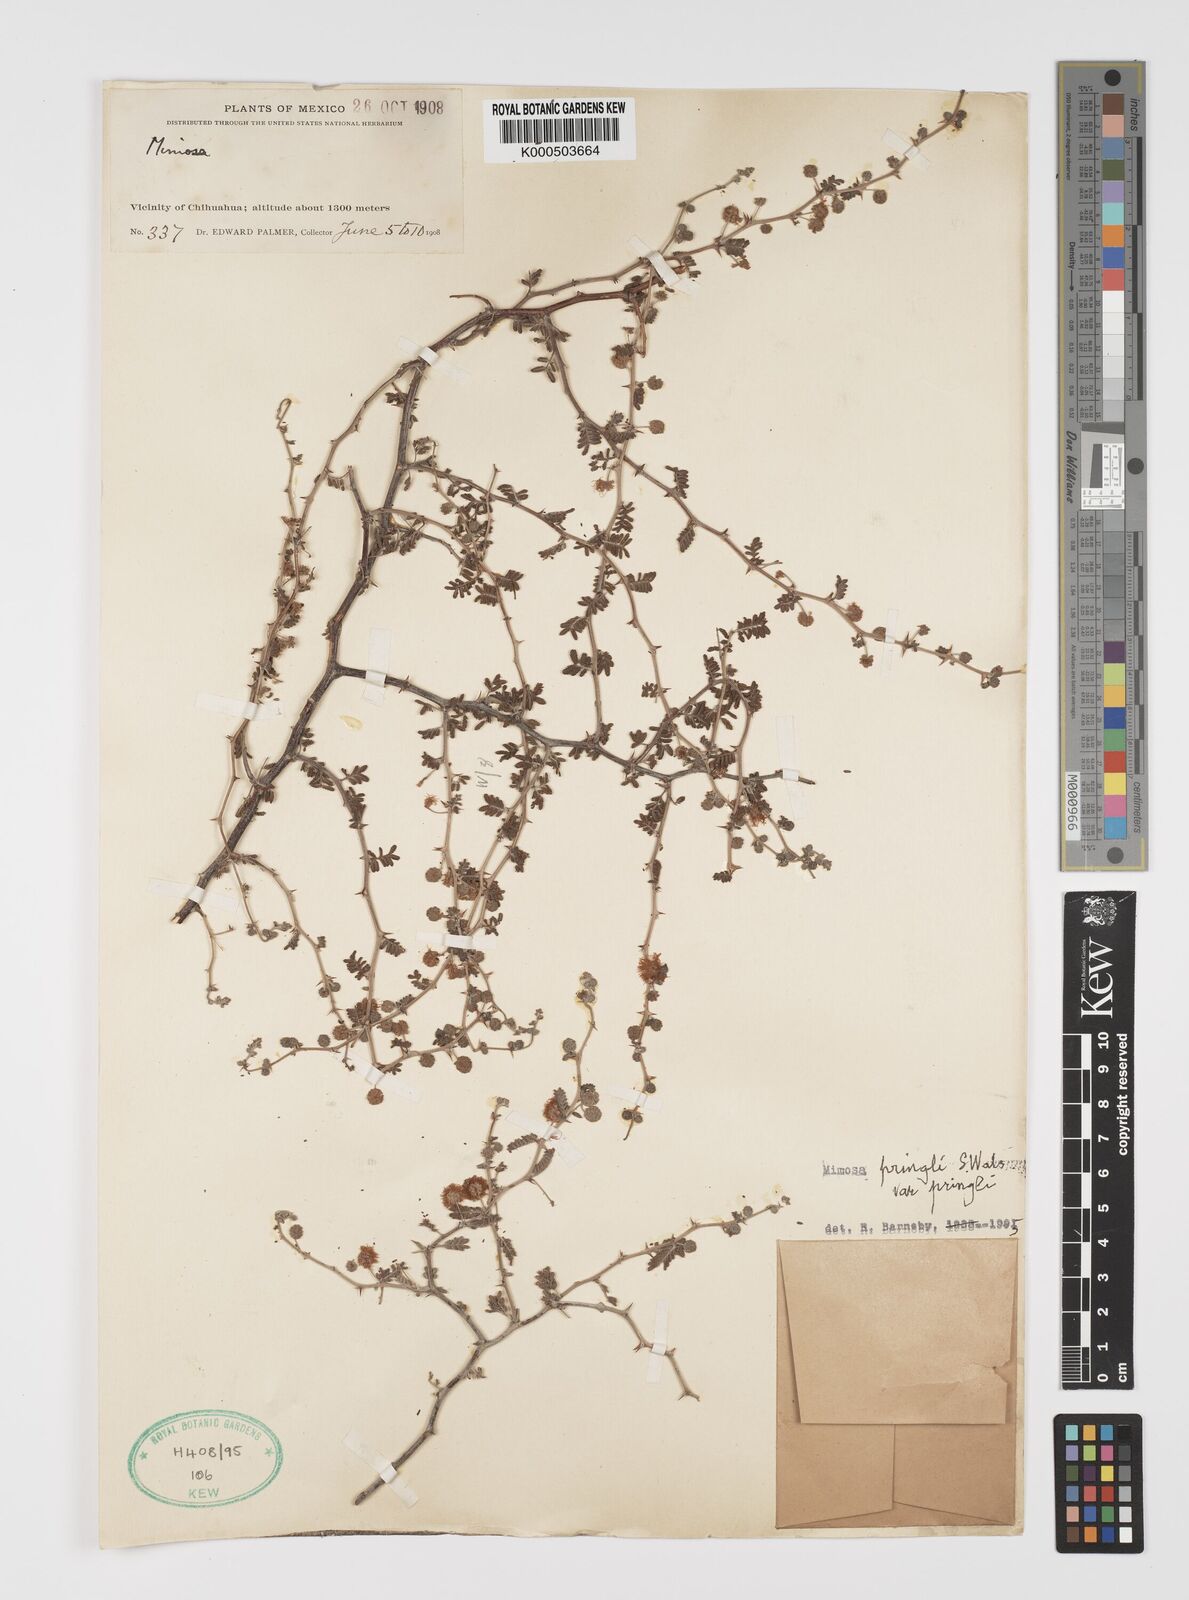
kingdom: Plantae
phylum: Tracheophyta
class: Magnoliopsida
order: Fabales
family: Fabaceae
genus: Mimosa
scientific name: Mimosa pringlei
